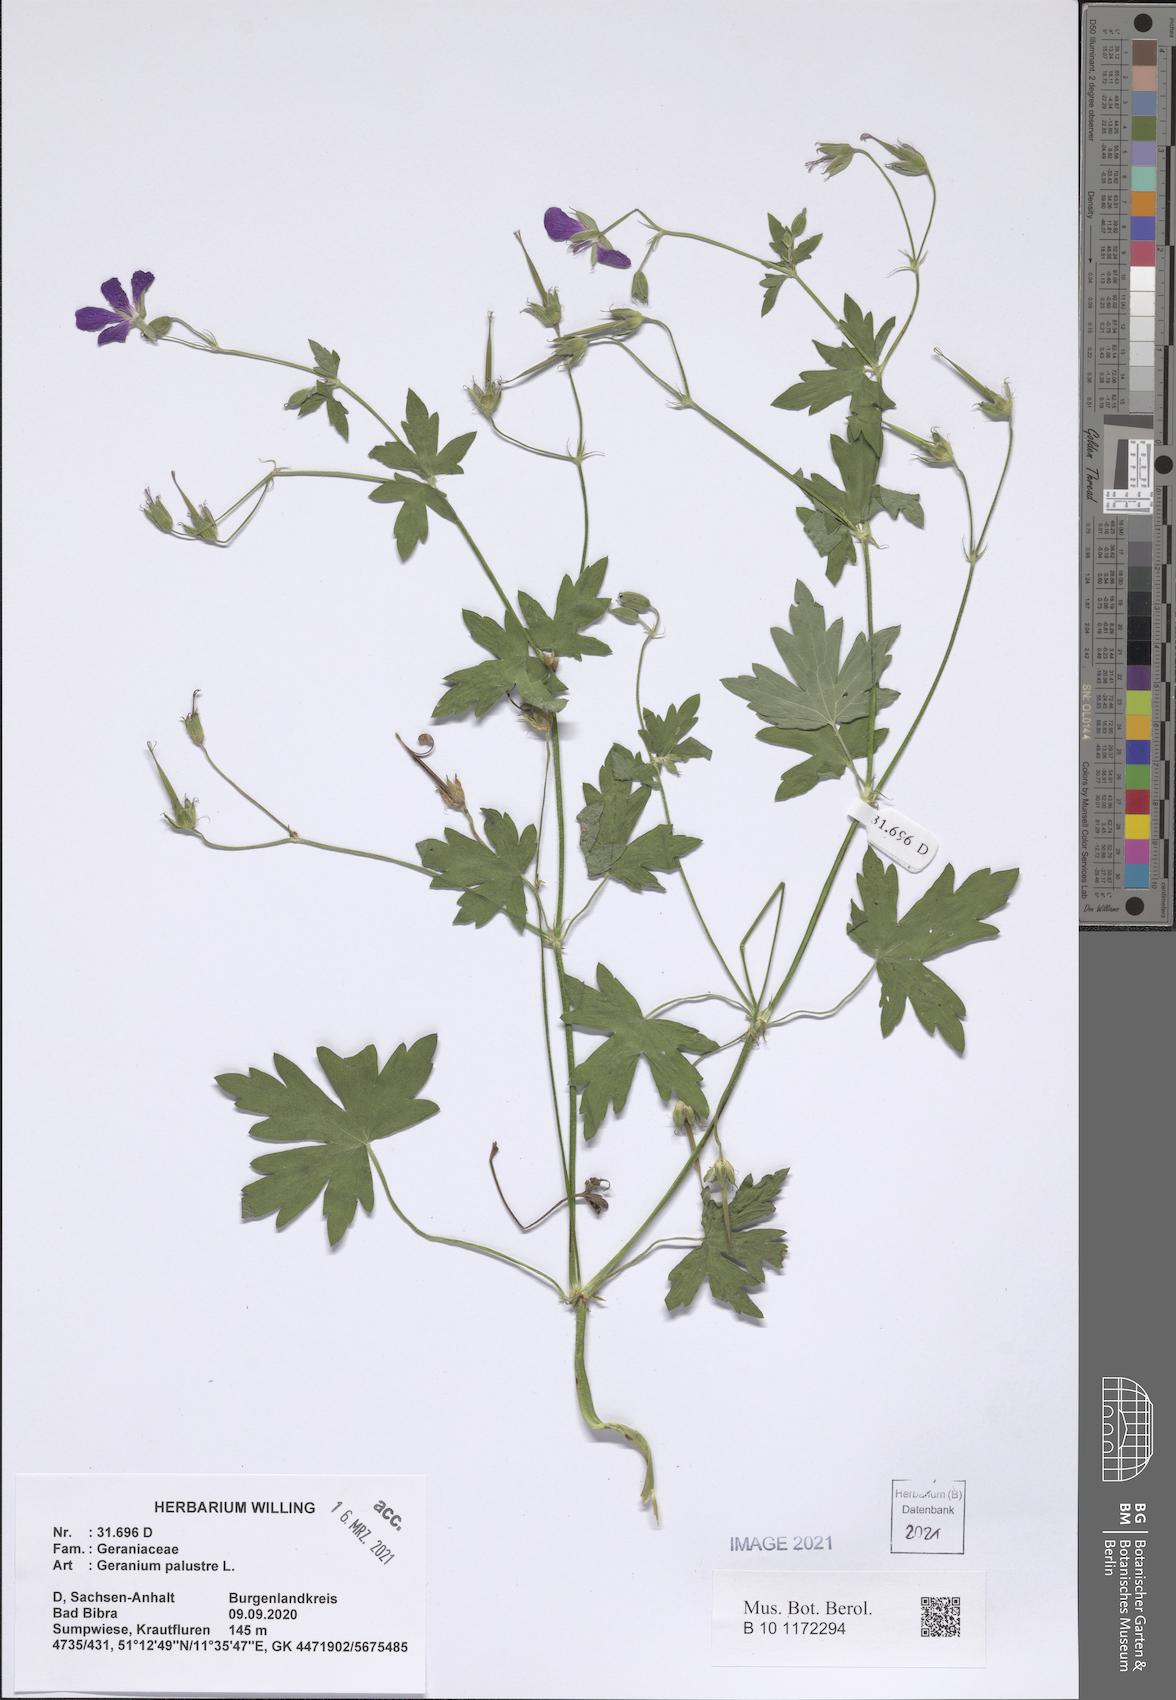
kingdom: Plantae
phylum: Tracheophyta
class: Magnoliopsida
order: Geraniales
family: Geraniaceae
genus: Geranium
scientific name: Geranium palustre
